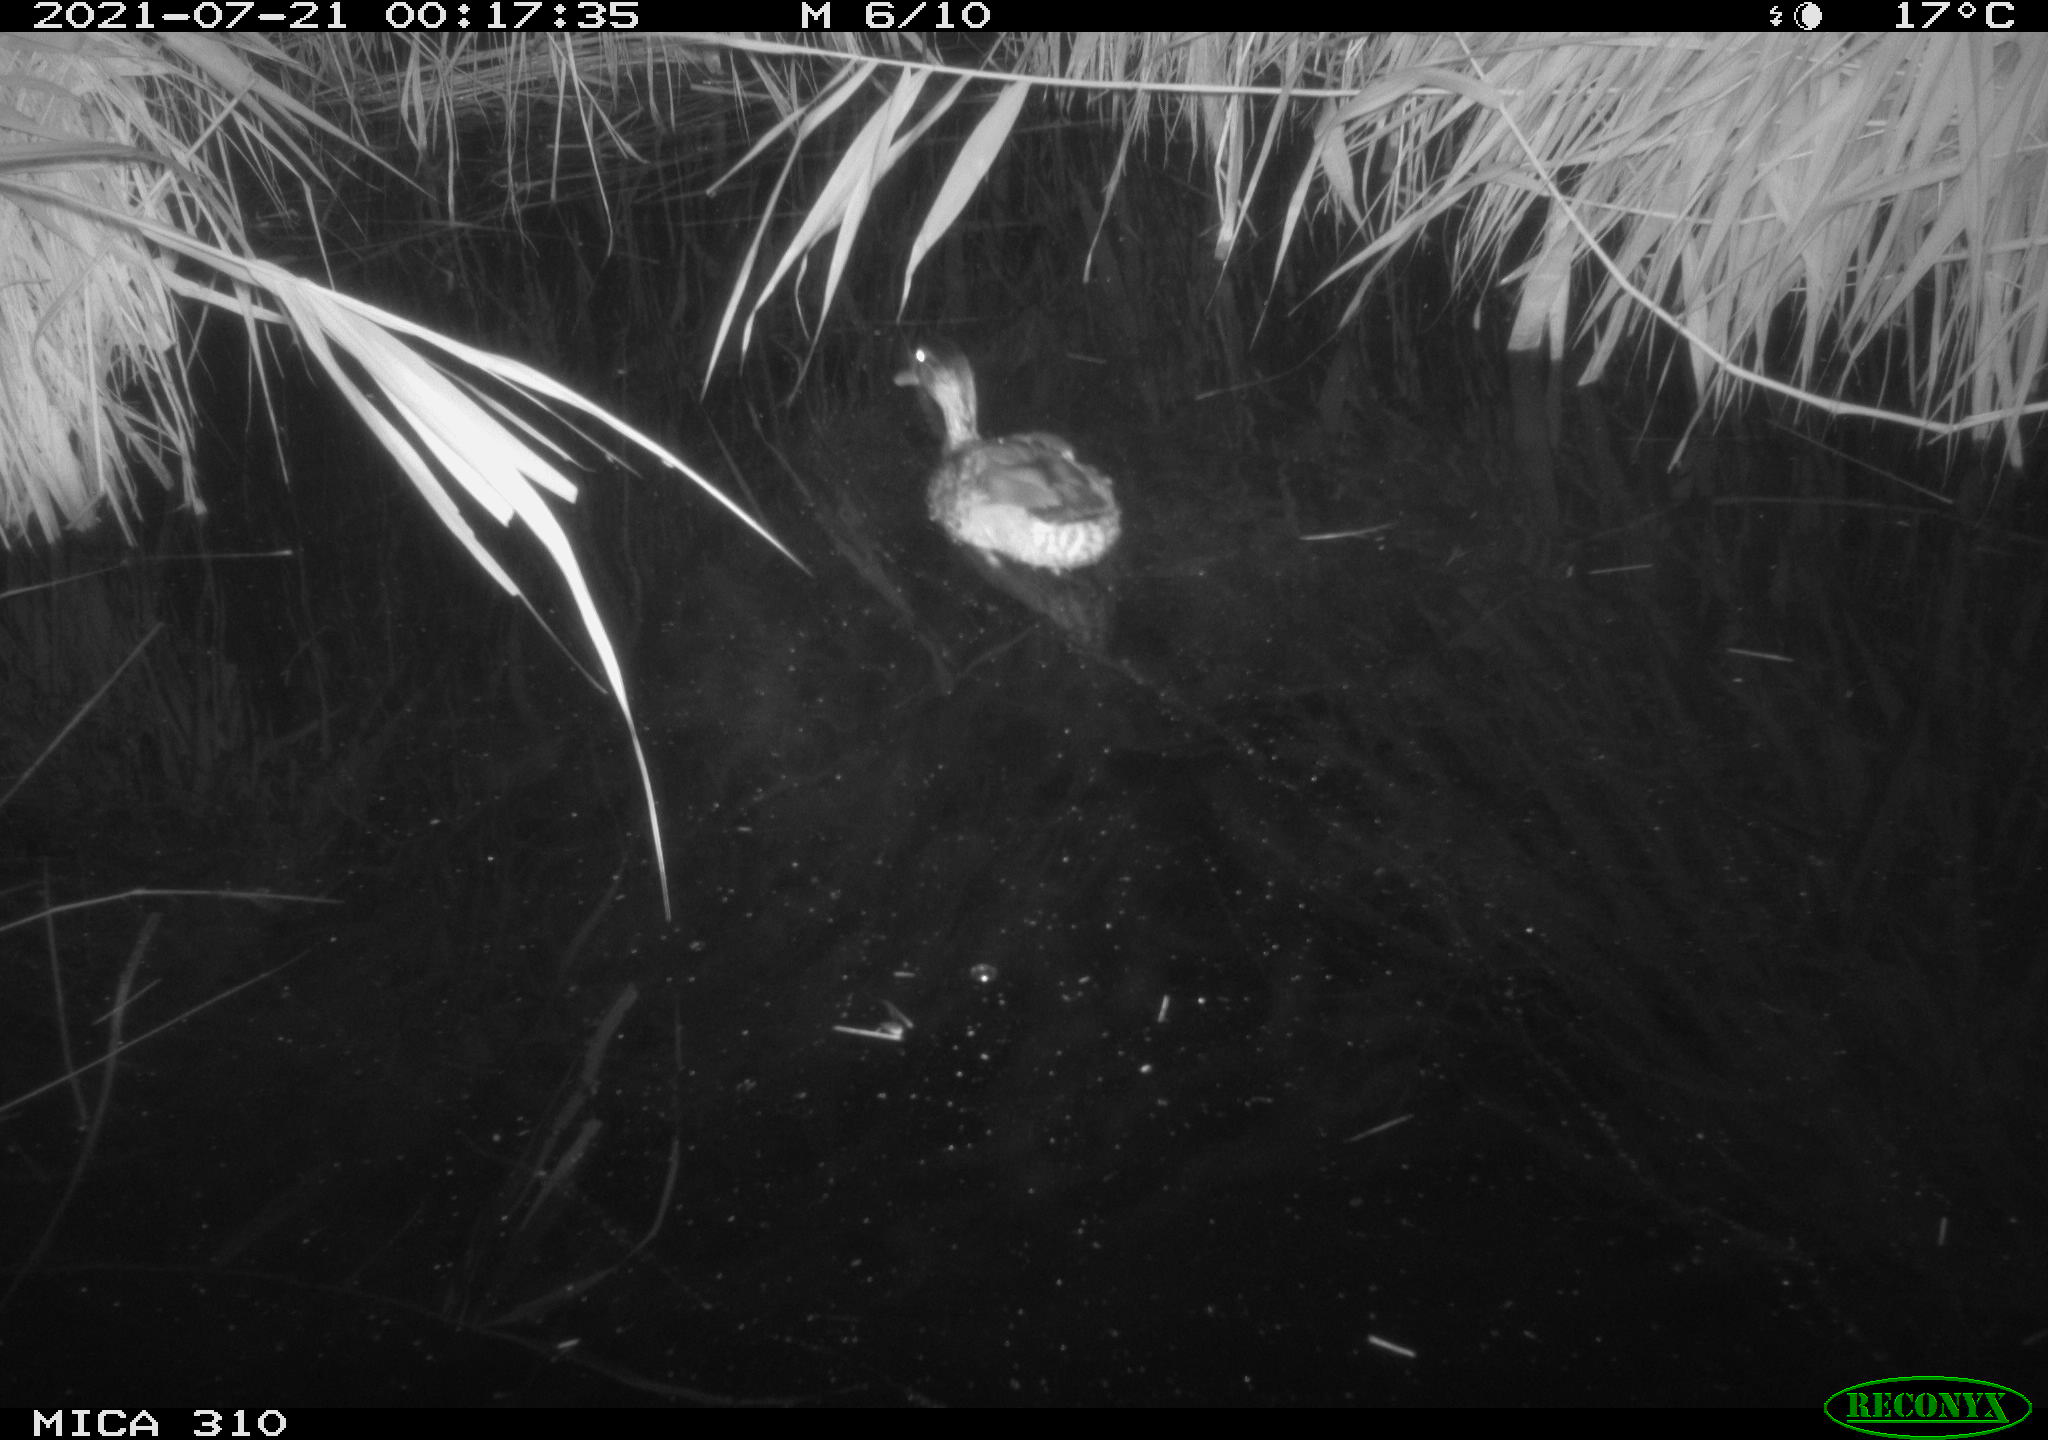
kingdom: Animalia
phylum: Chordata
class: Aves
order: Anseriformes
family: Anatidae
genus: Anas
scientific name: Anas platyrhynchos
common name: Mallard
